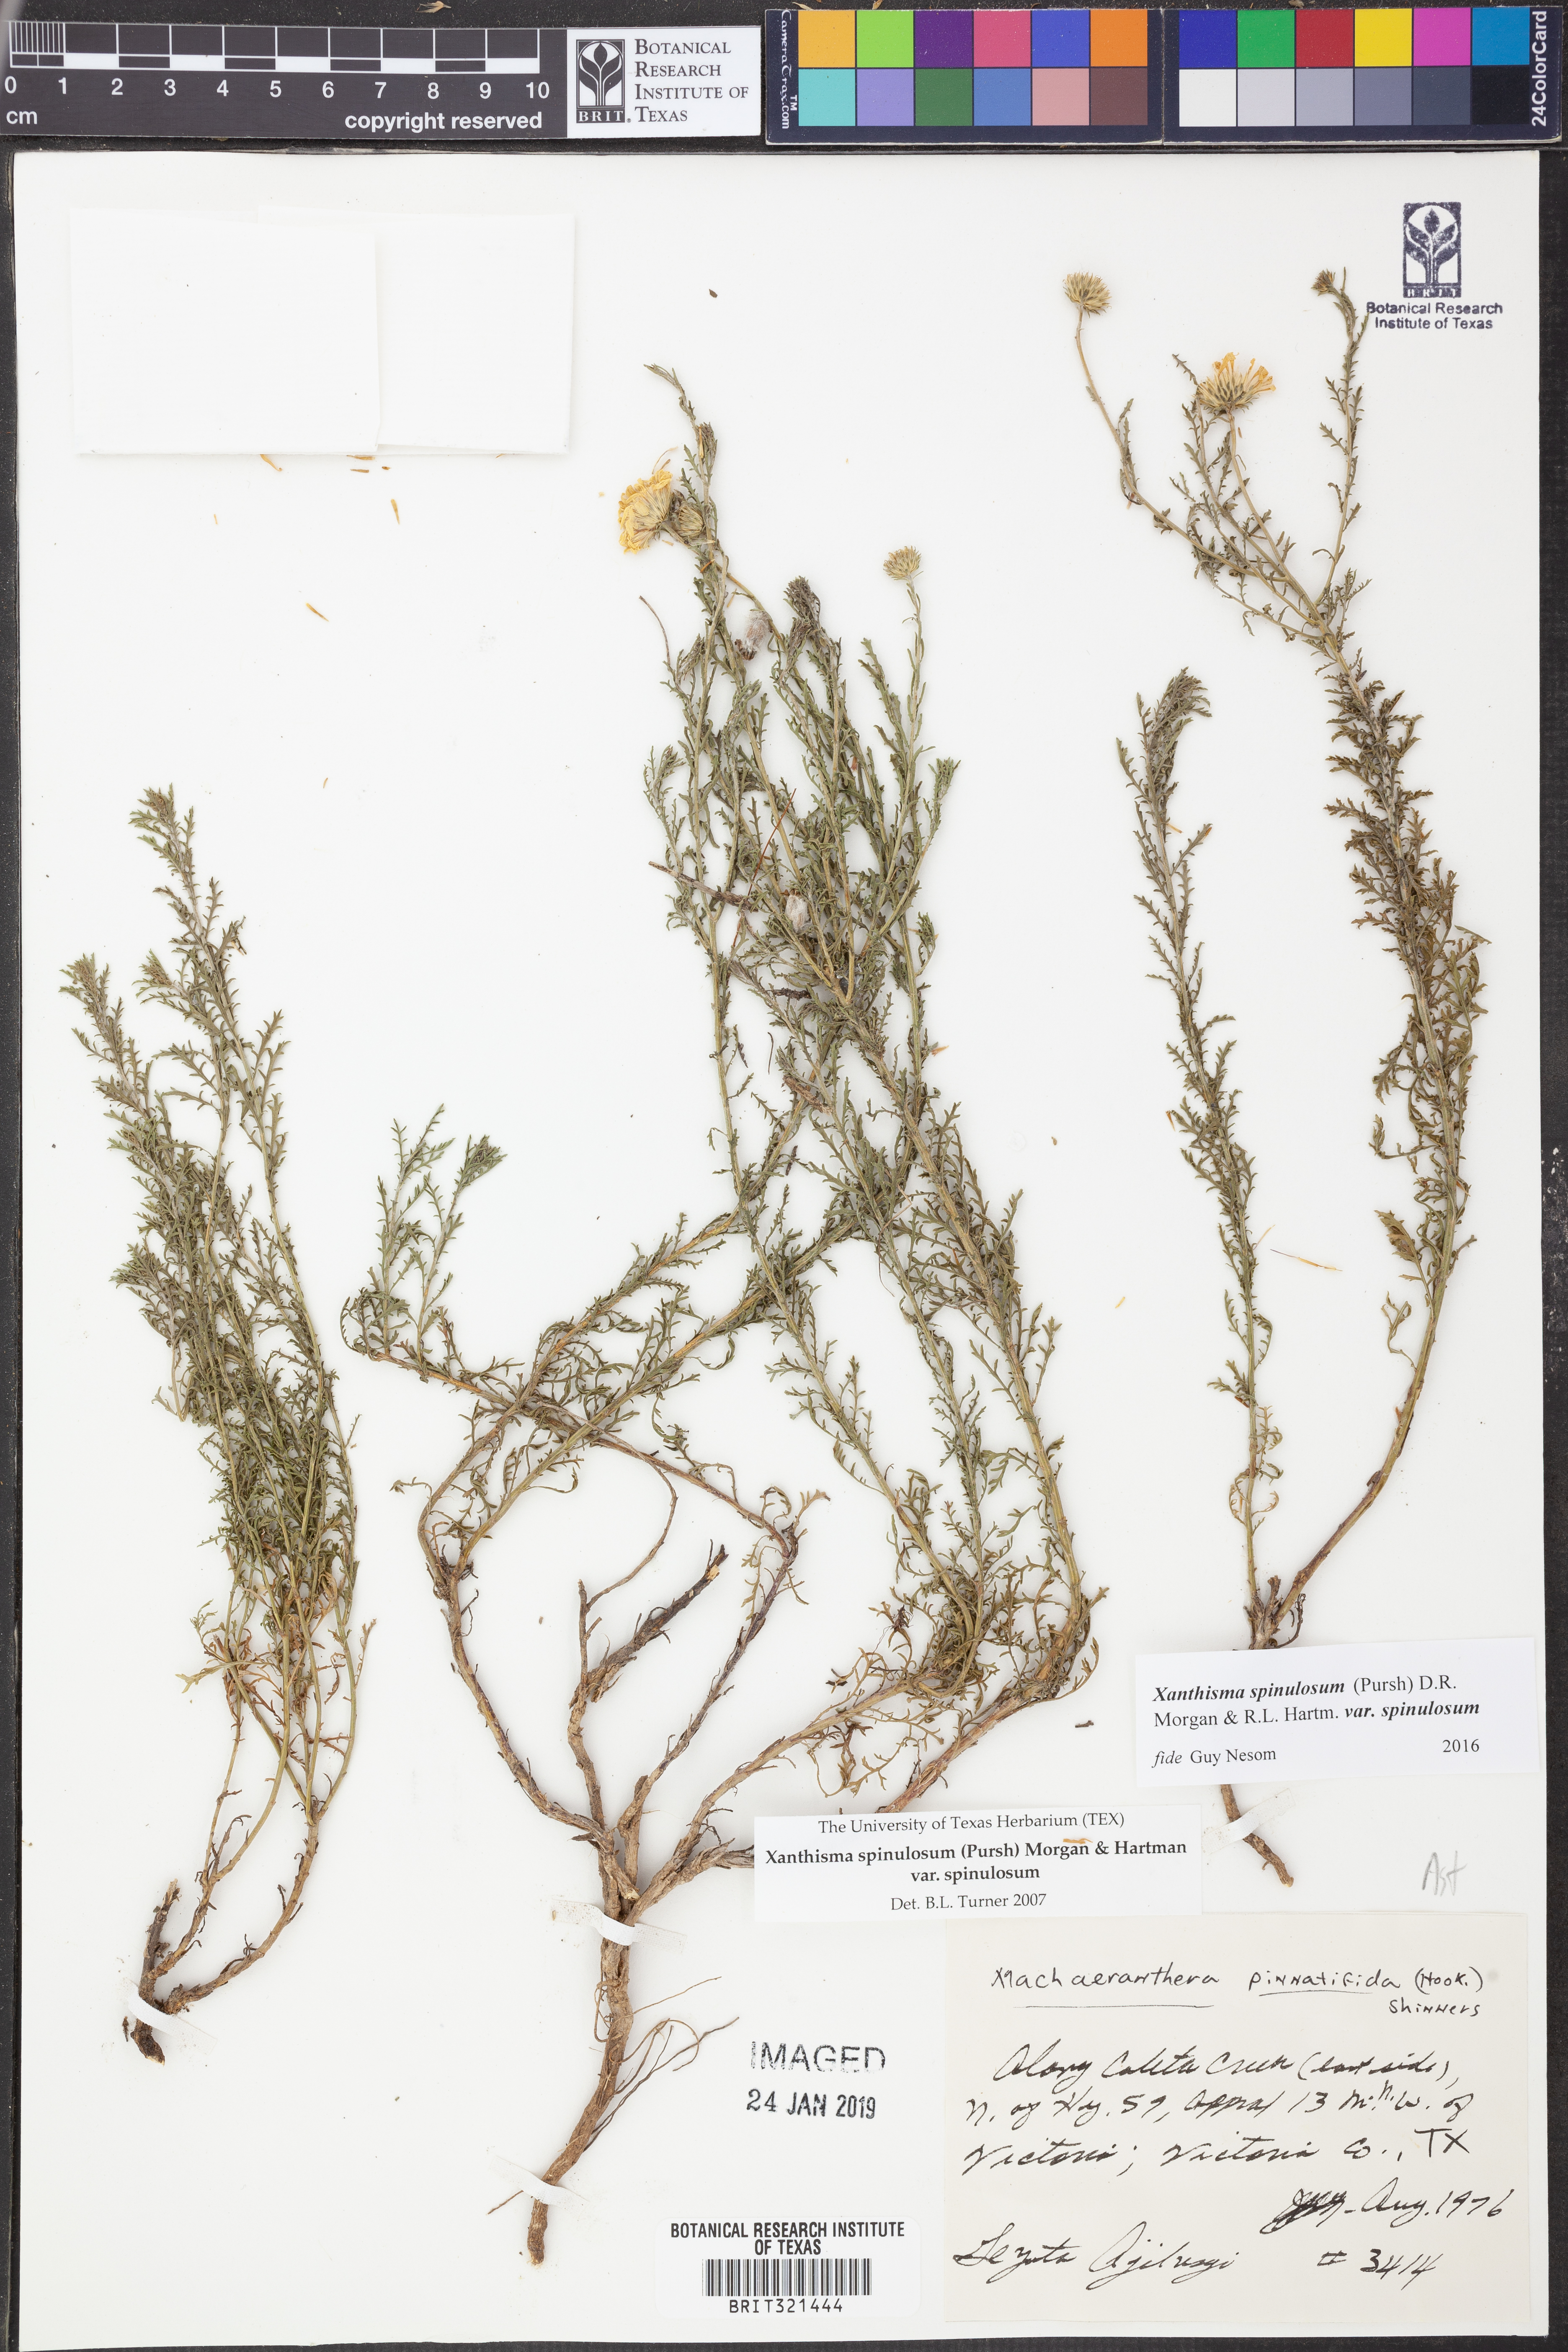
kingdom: Plantae
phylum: Tracheophyta
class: Magnoliopsida
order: Asterales
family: Asteraceae
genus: Xanthisma
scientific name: Xanthisma spinulosum
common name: Spiny goldenweed
